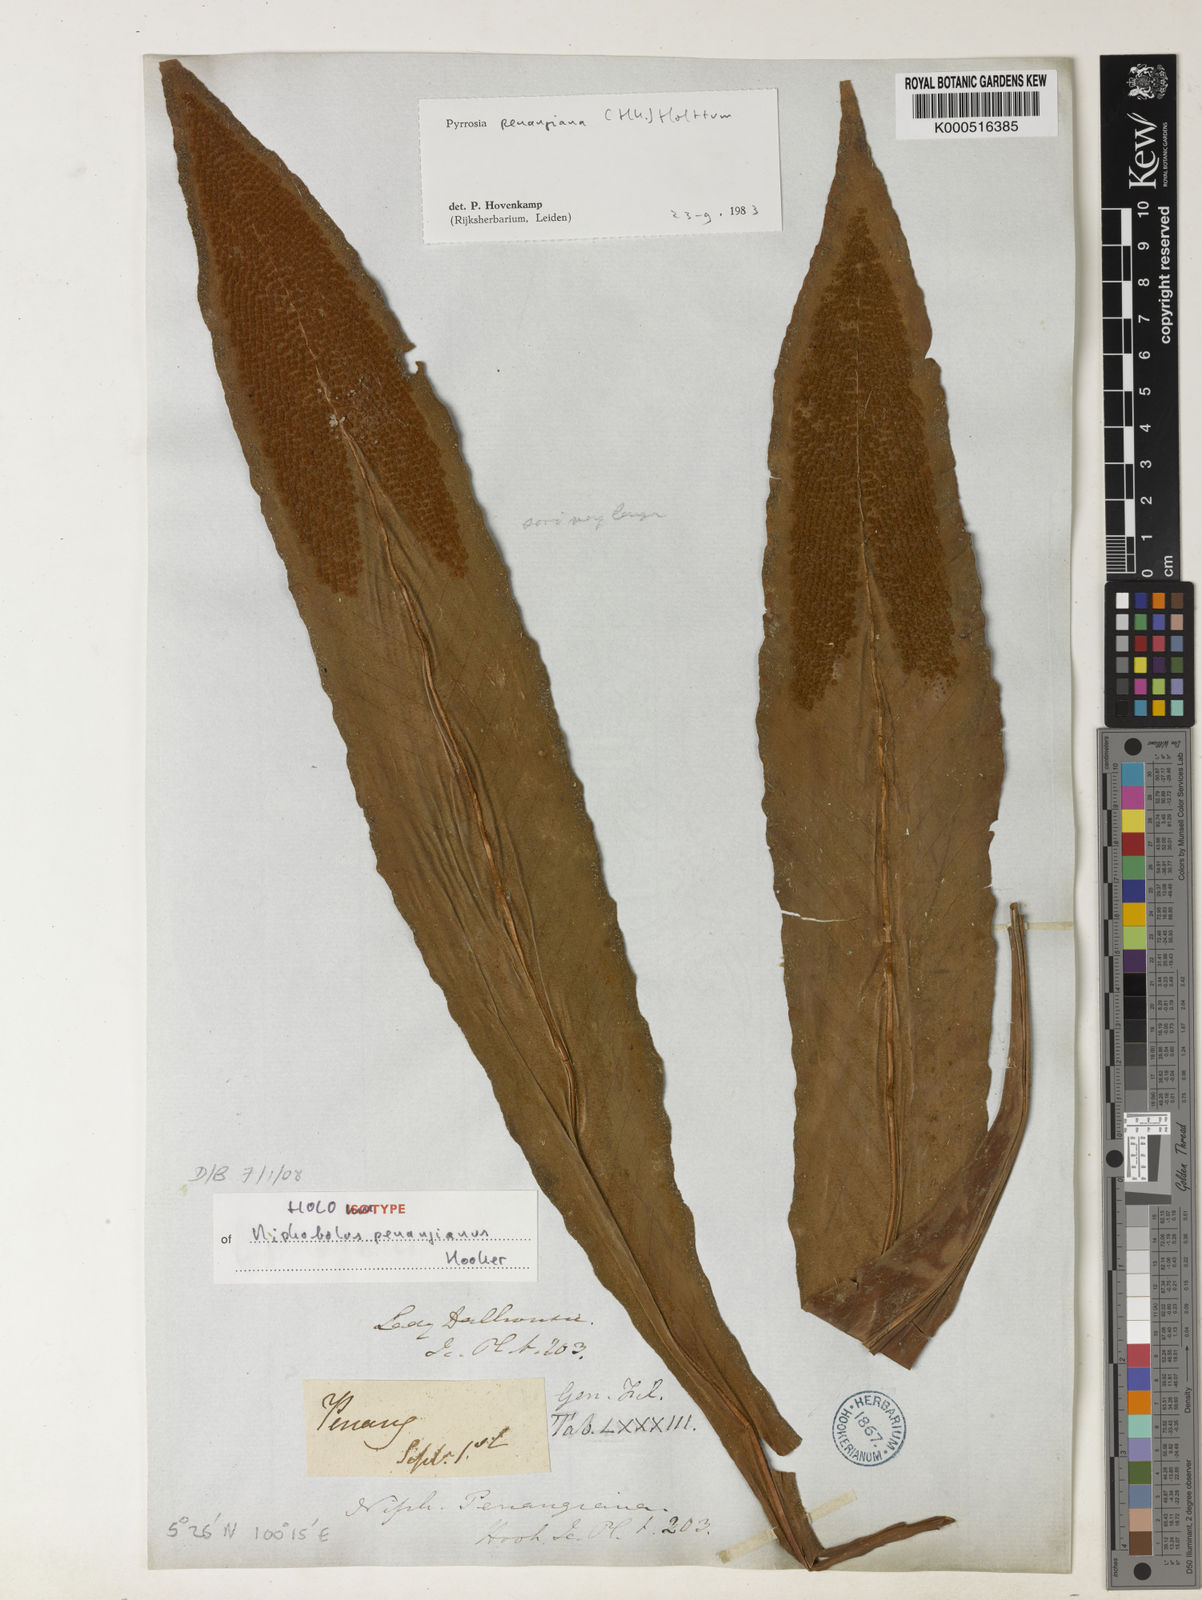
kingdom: Plantae
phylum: Tracheophyta
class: Polypodiopsida
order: Polypodiales
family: Polypodiaceae
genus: Pyrrosia
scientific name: Pyrrosia penangiana
